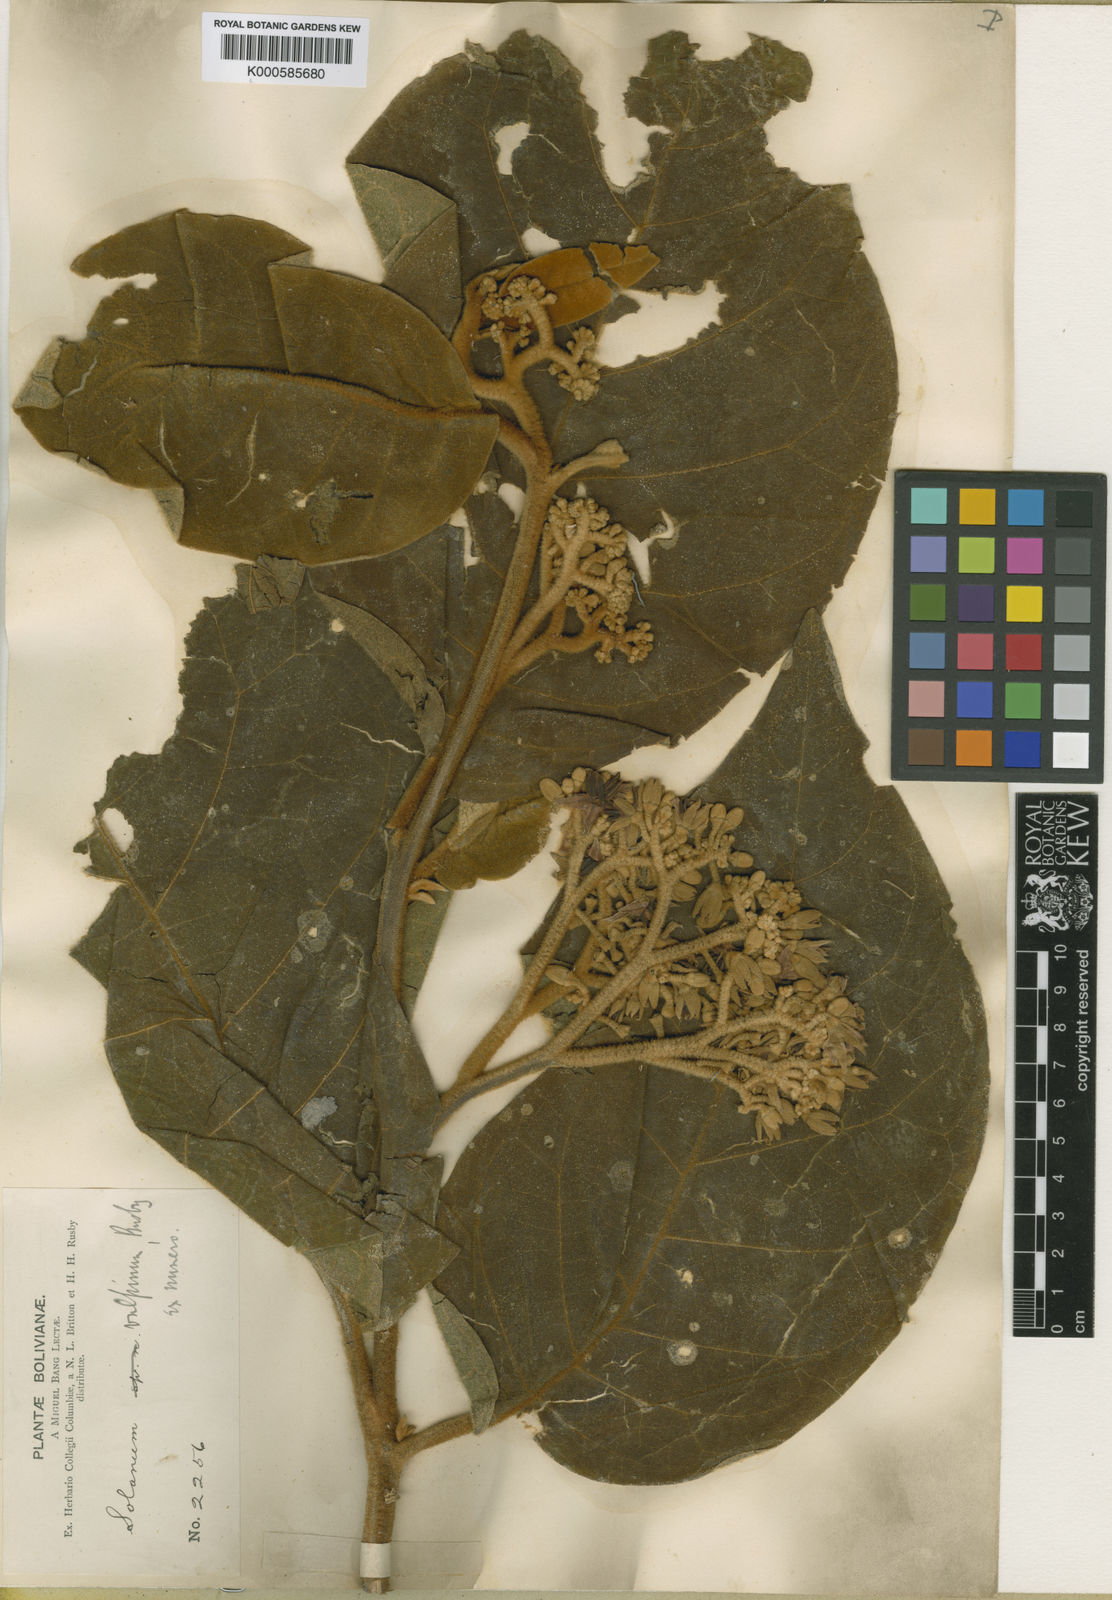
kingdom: Plantae
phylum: Tracheophyta
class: Magnoliopsida
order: Solanales
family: Solanaceae
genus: Solanum
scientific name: Solanum actaeibotrys
